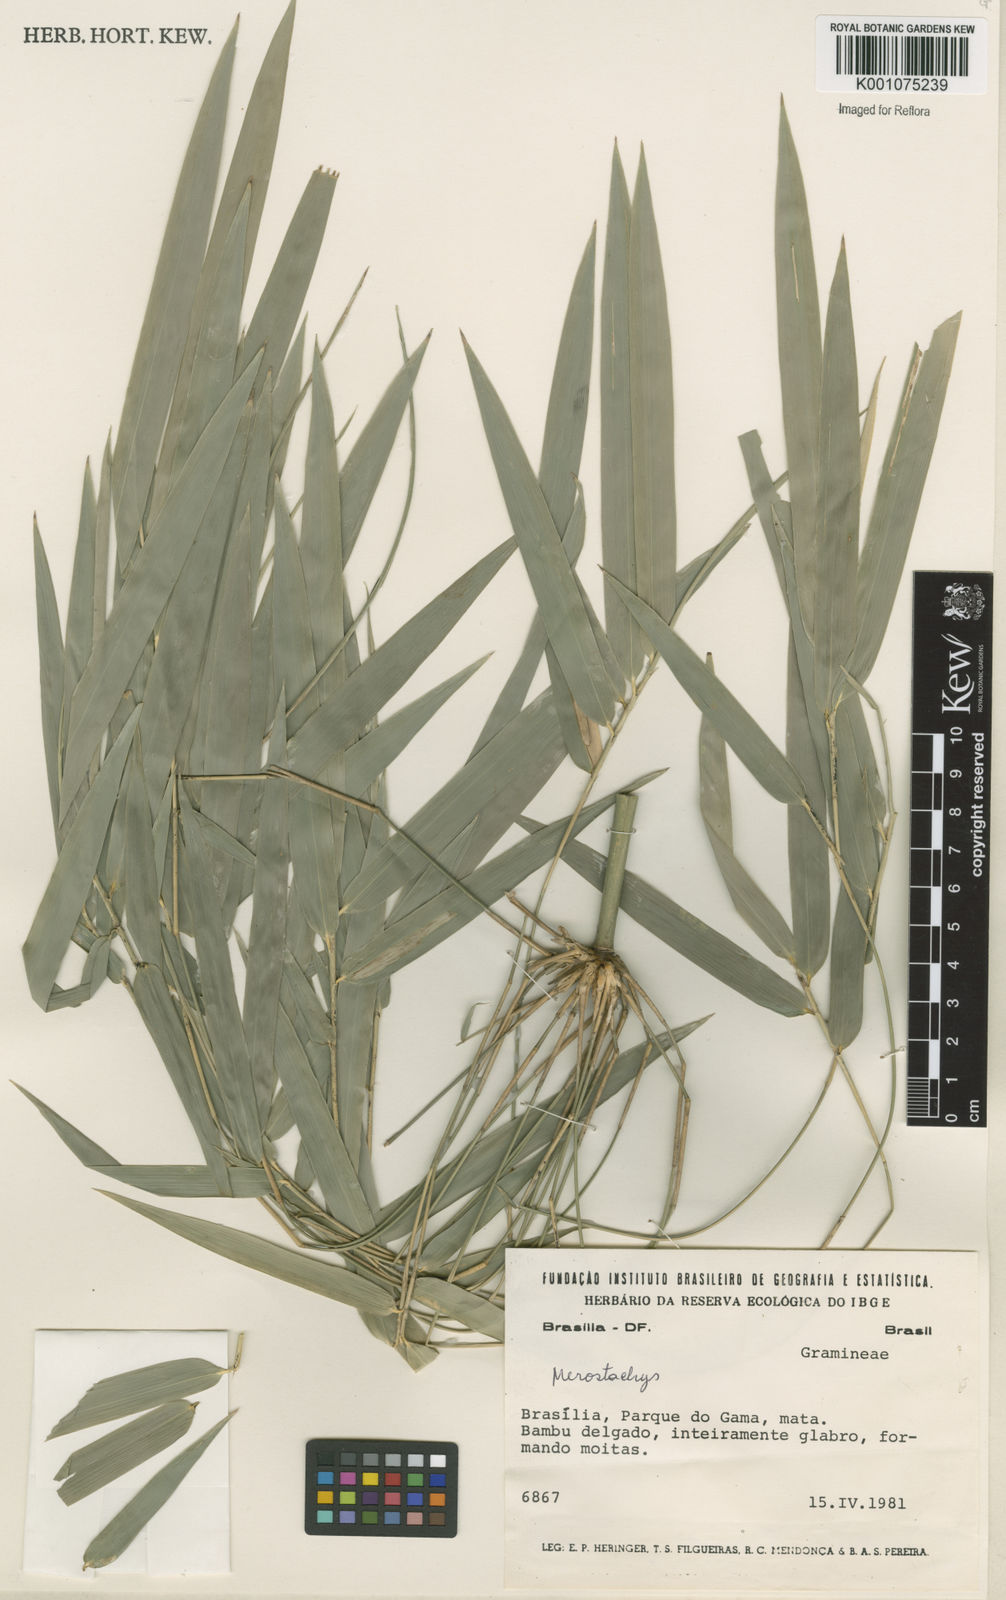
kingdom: Plantae
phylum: Tracheophyta
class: Liliopsida
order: Poales
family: Poaceae
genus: Merostachys
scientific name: Merostachys
